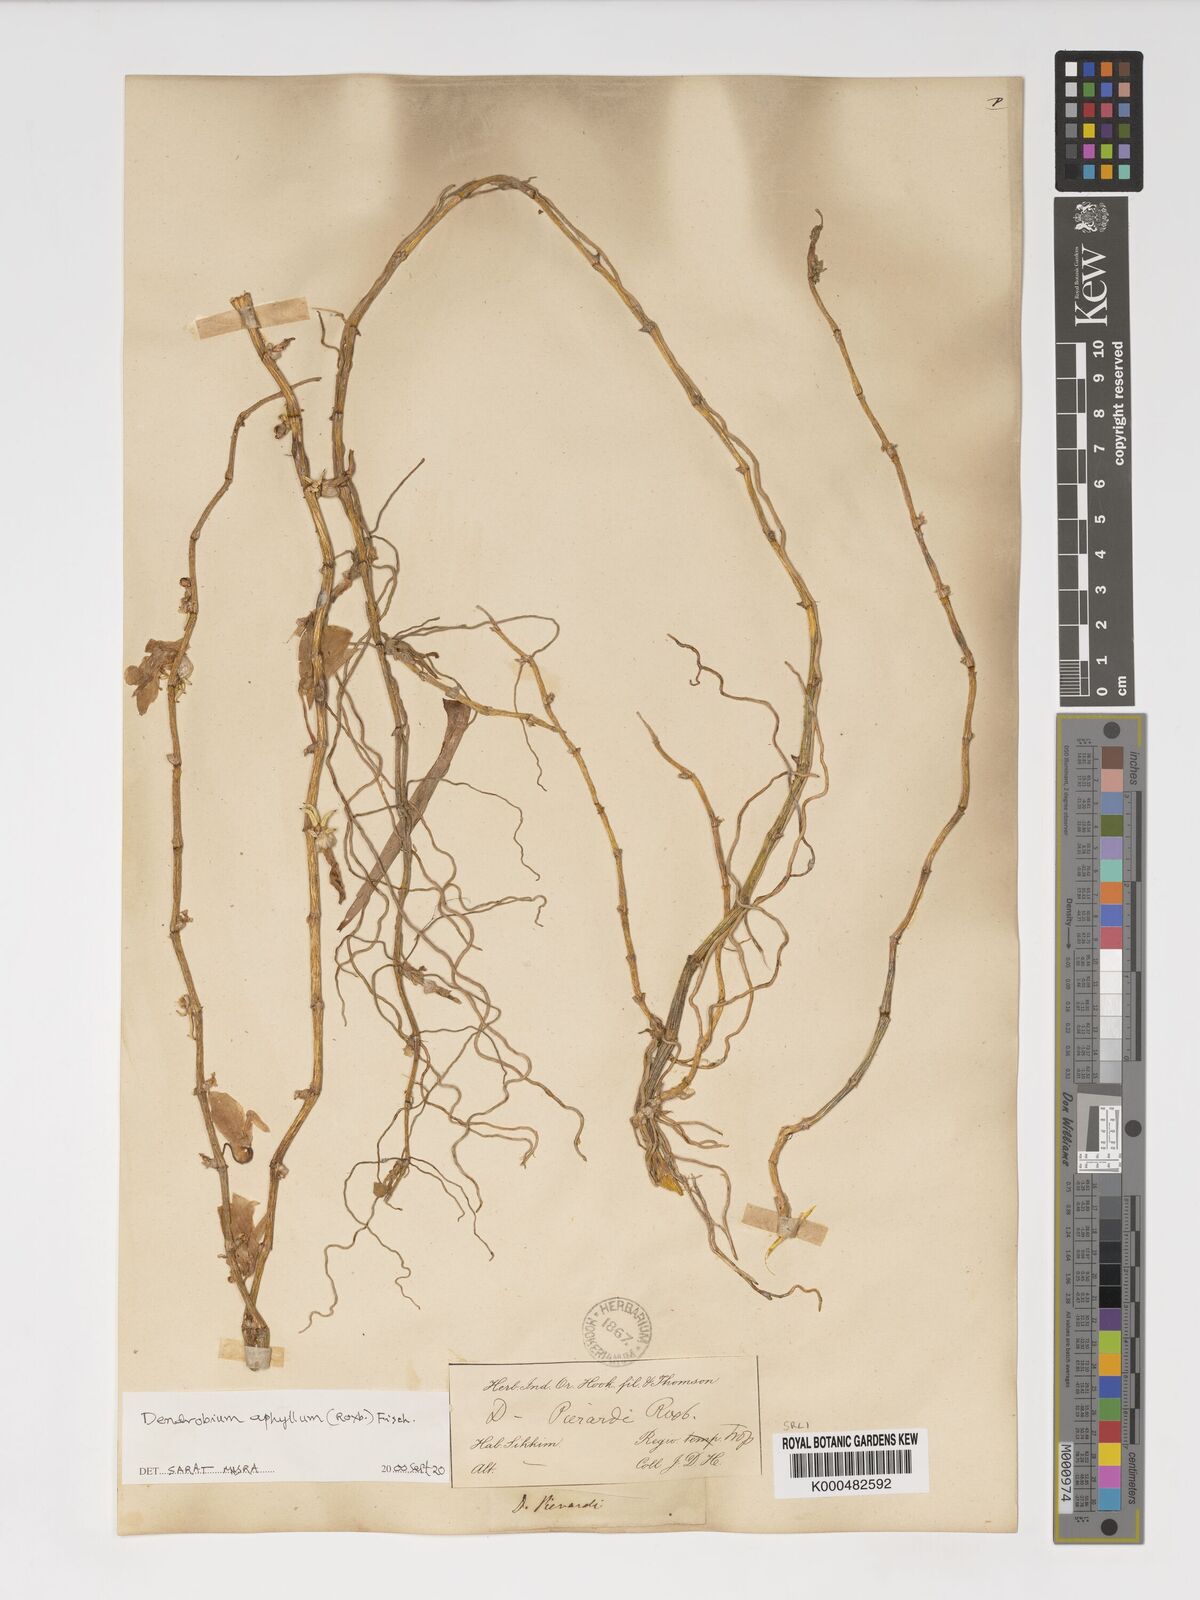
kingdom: Plantae
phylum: Tracheophyta
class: Liliopsida
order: Asparagales
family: Orchidaceae
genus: Dendrobium
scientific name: Dendrobium macrostachyum
